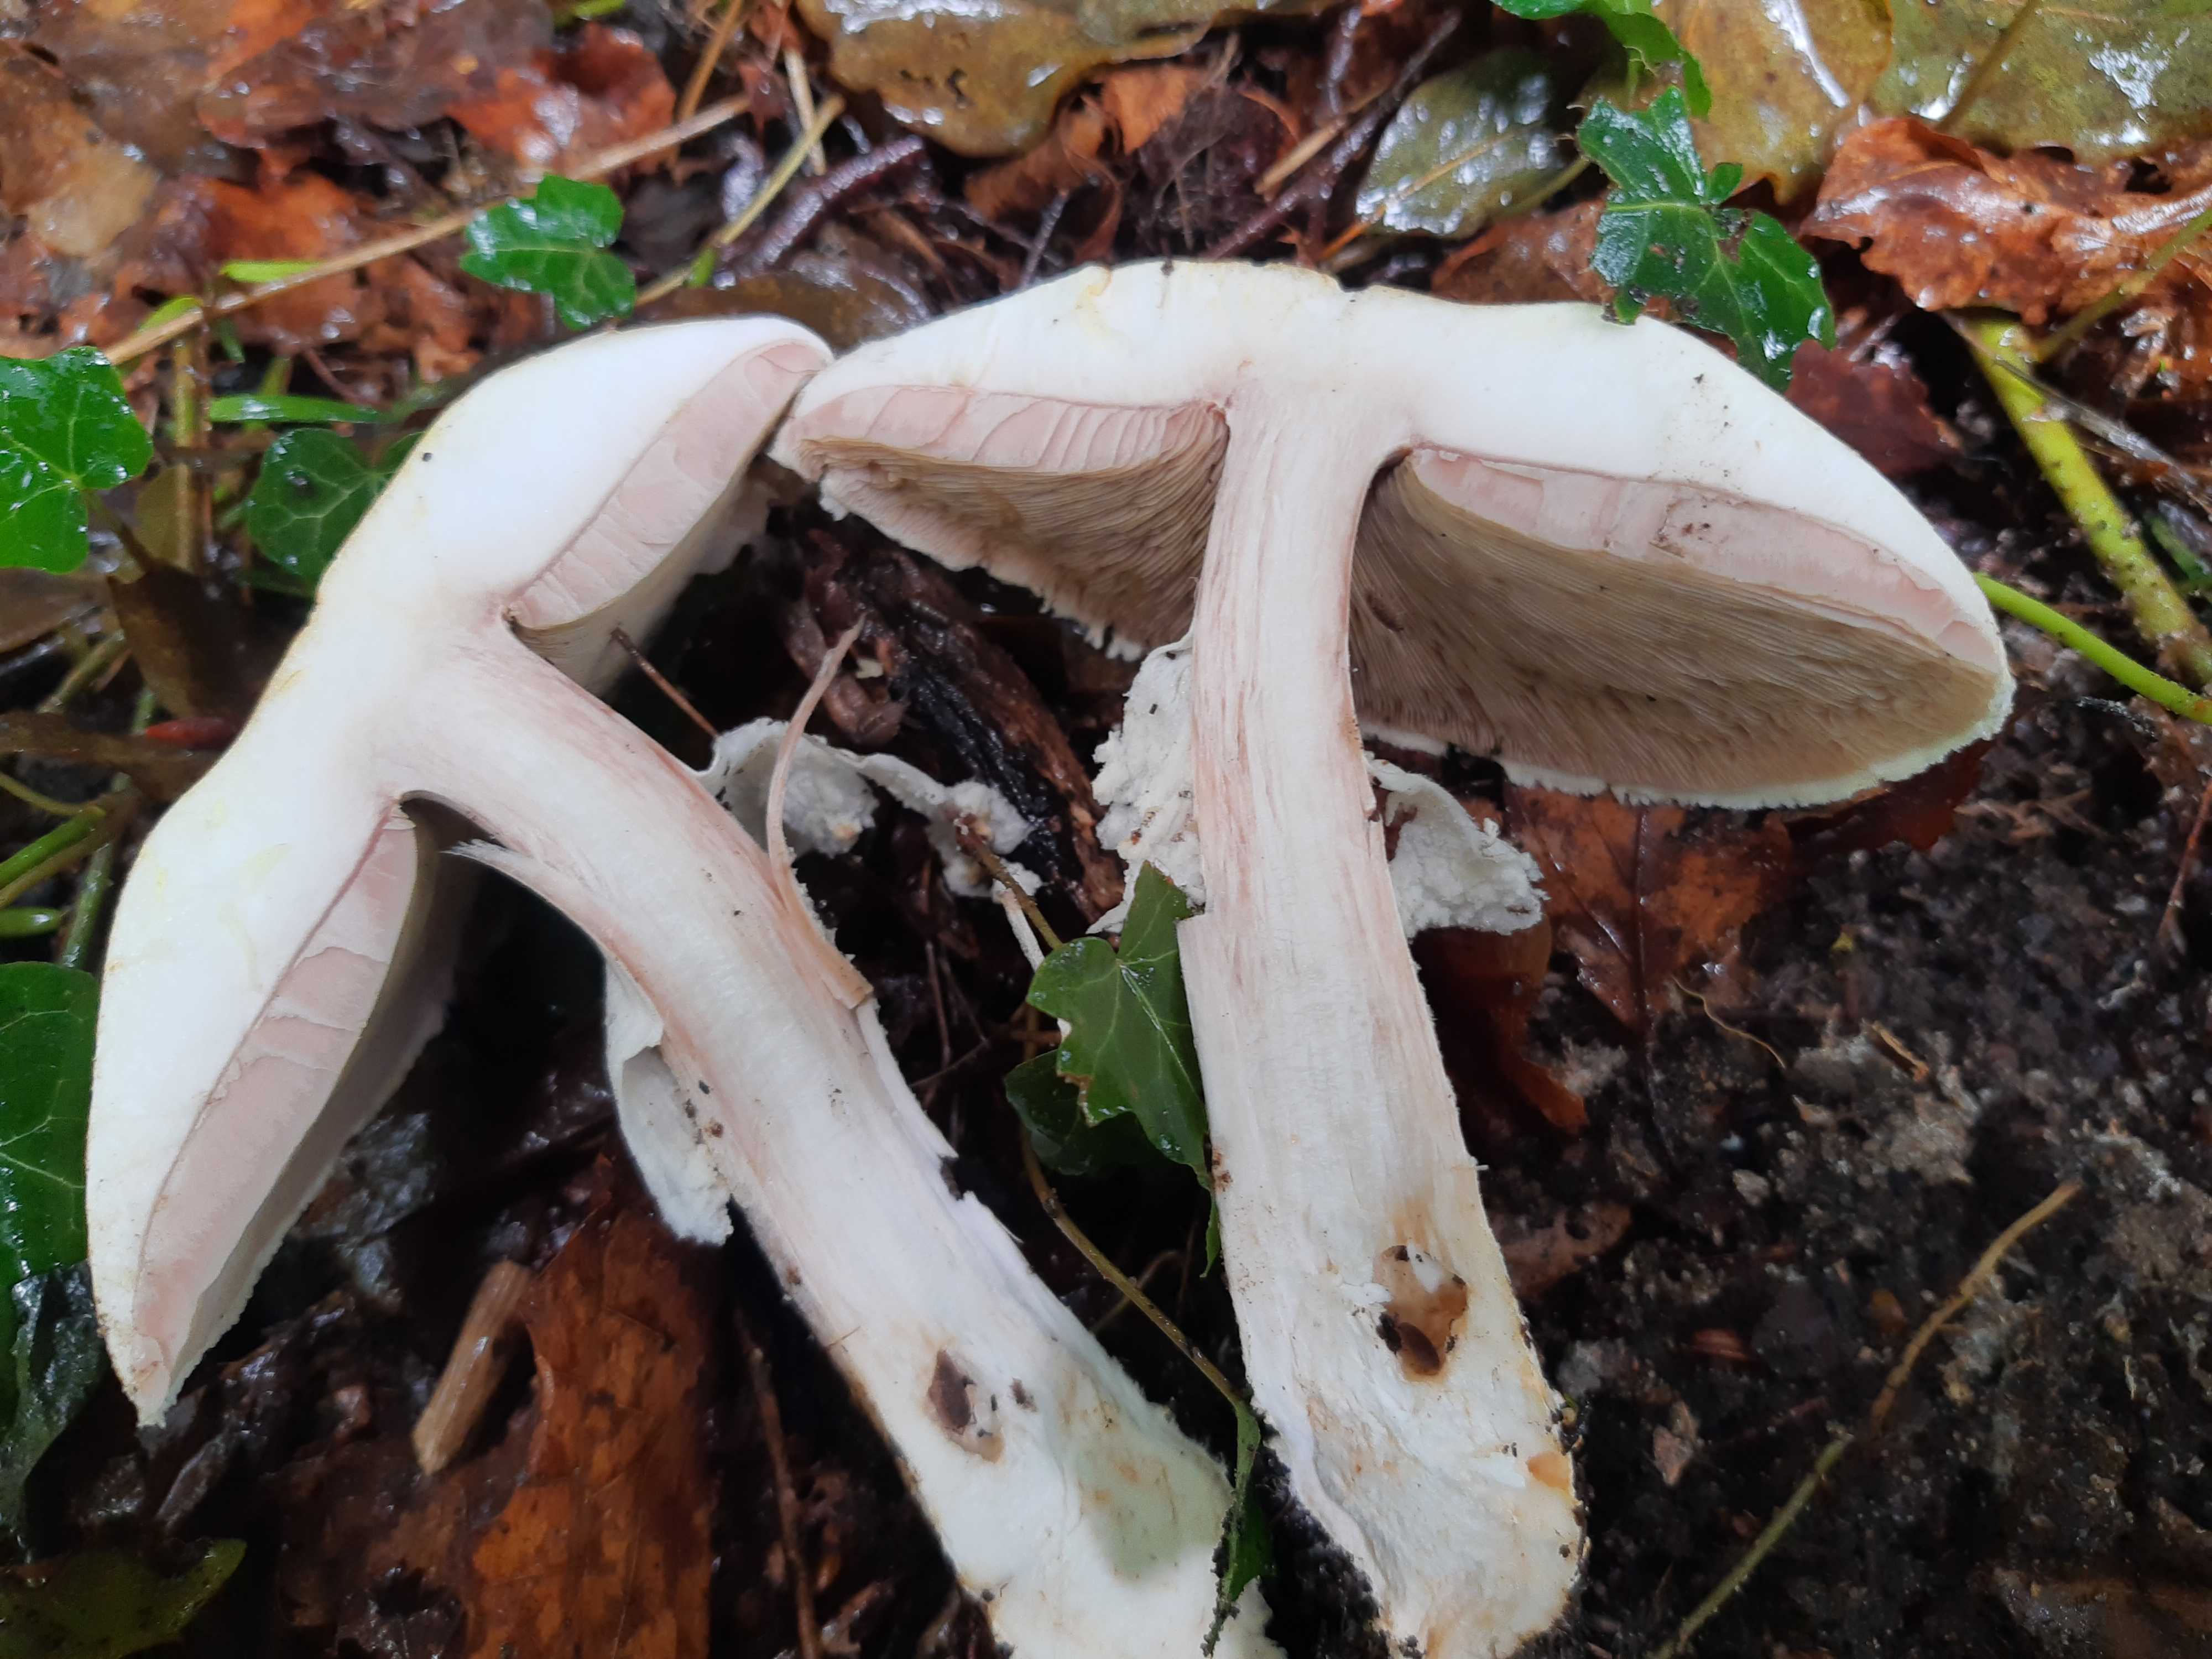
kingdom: Fungi
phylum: Basidiomycota
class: Agaricomycetes
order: Agaricales
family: Agaricaceae
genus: Agaricus
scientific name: Agaricus augustus
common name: prægtig champignon
